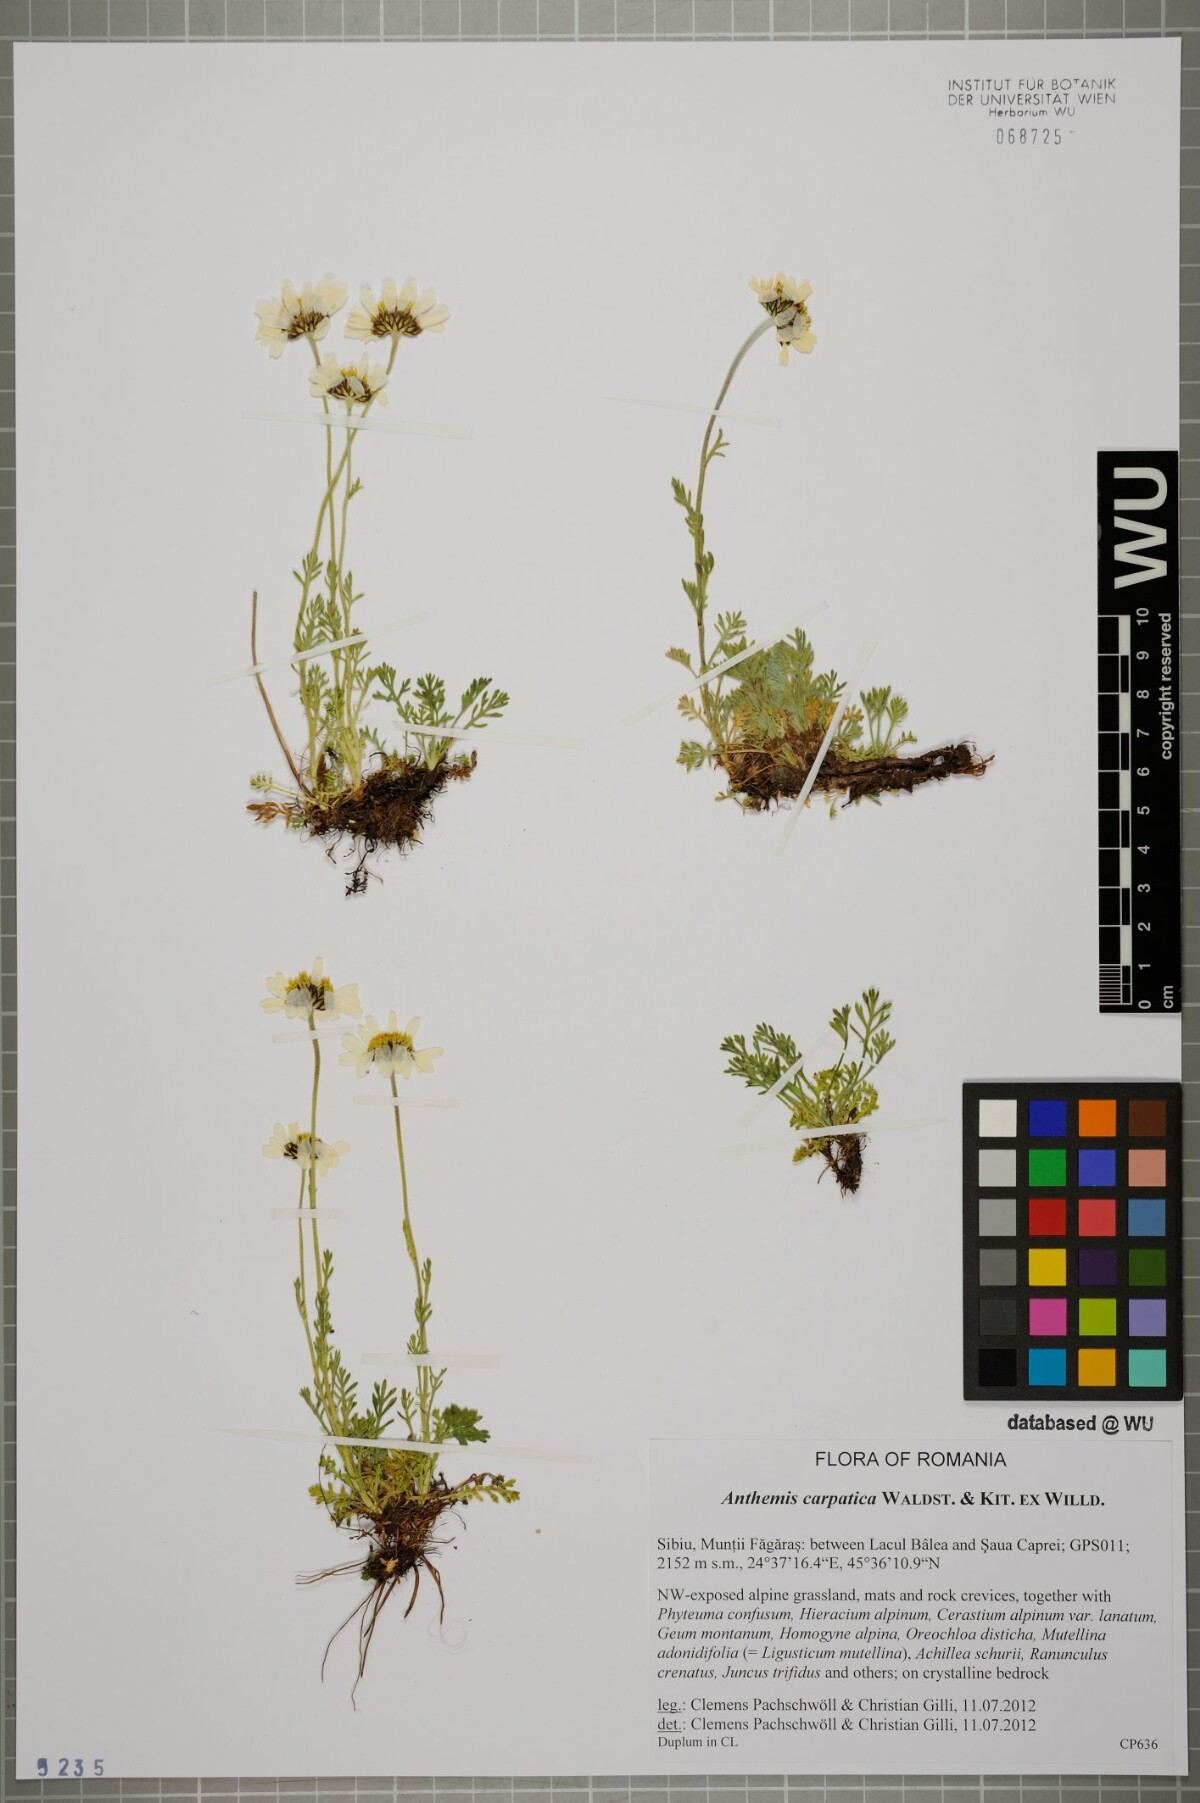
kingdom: Plantae
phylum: Tracheophyta
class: Magnoliopsida
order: Asterales
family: Asteraceae
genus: Anthemis
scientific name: Anthemis cretica
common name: Mountain dog-daisy
